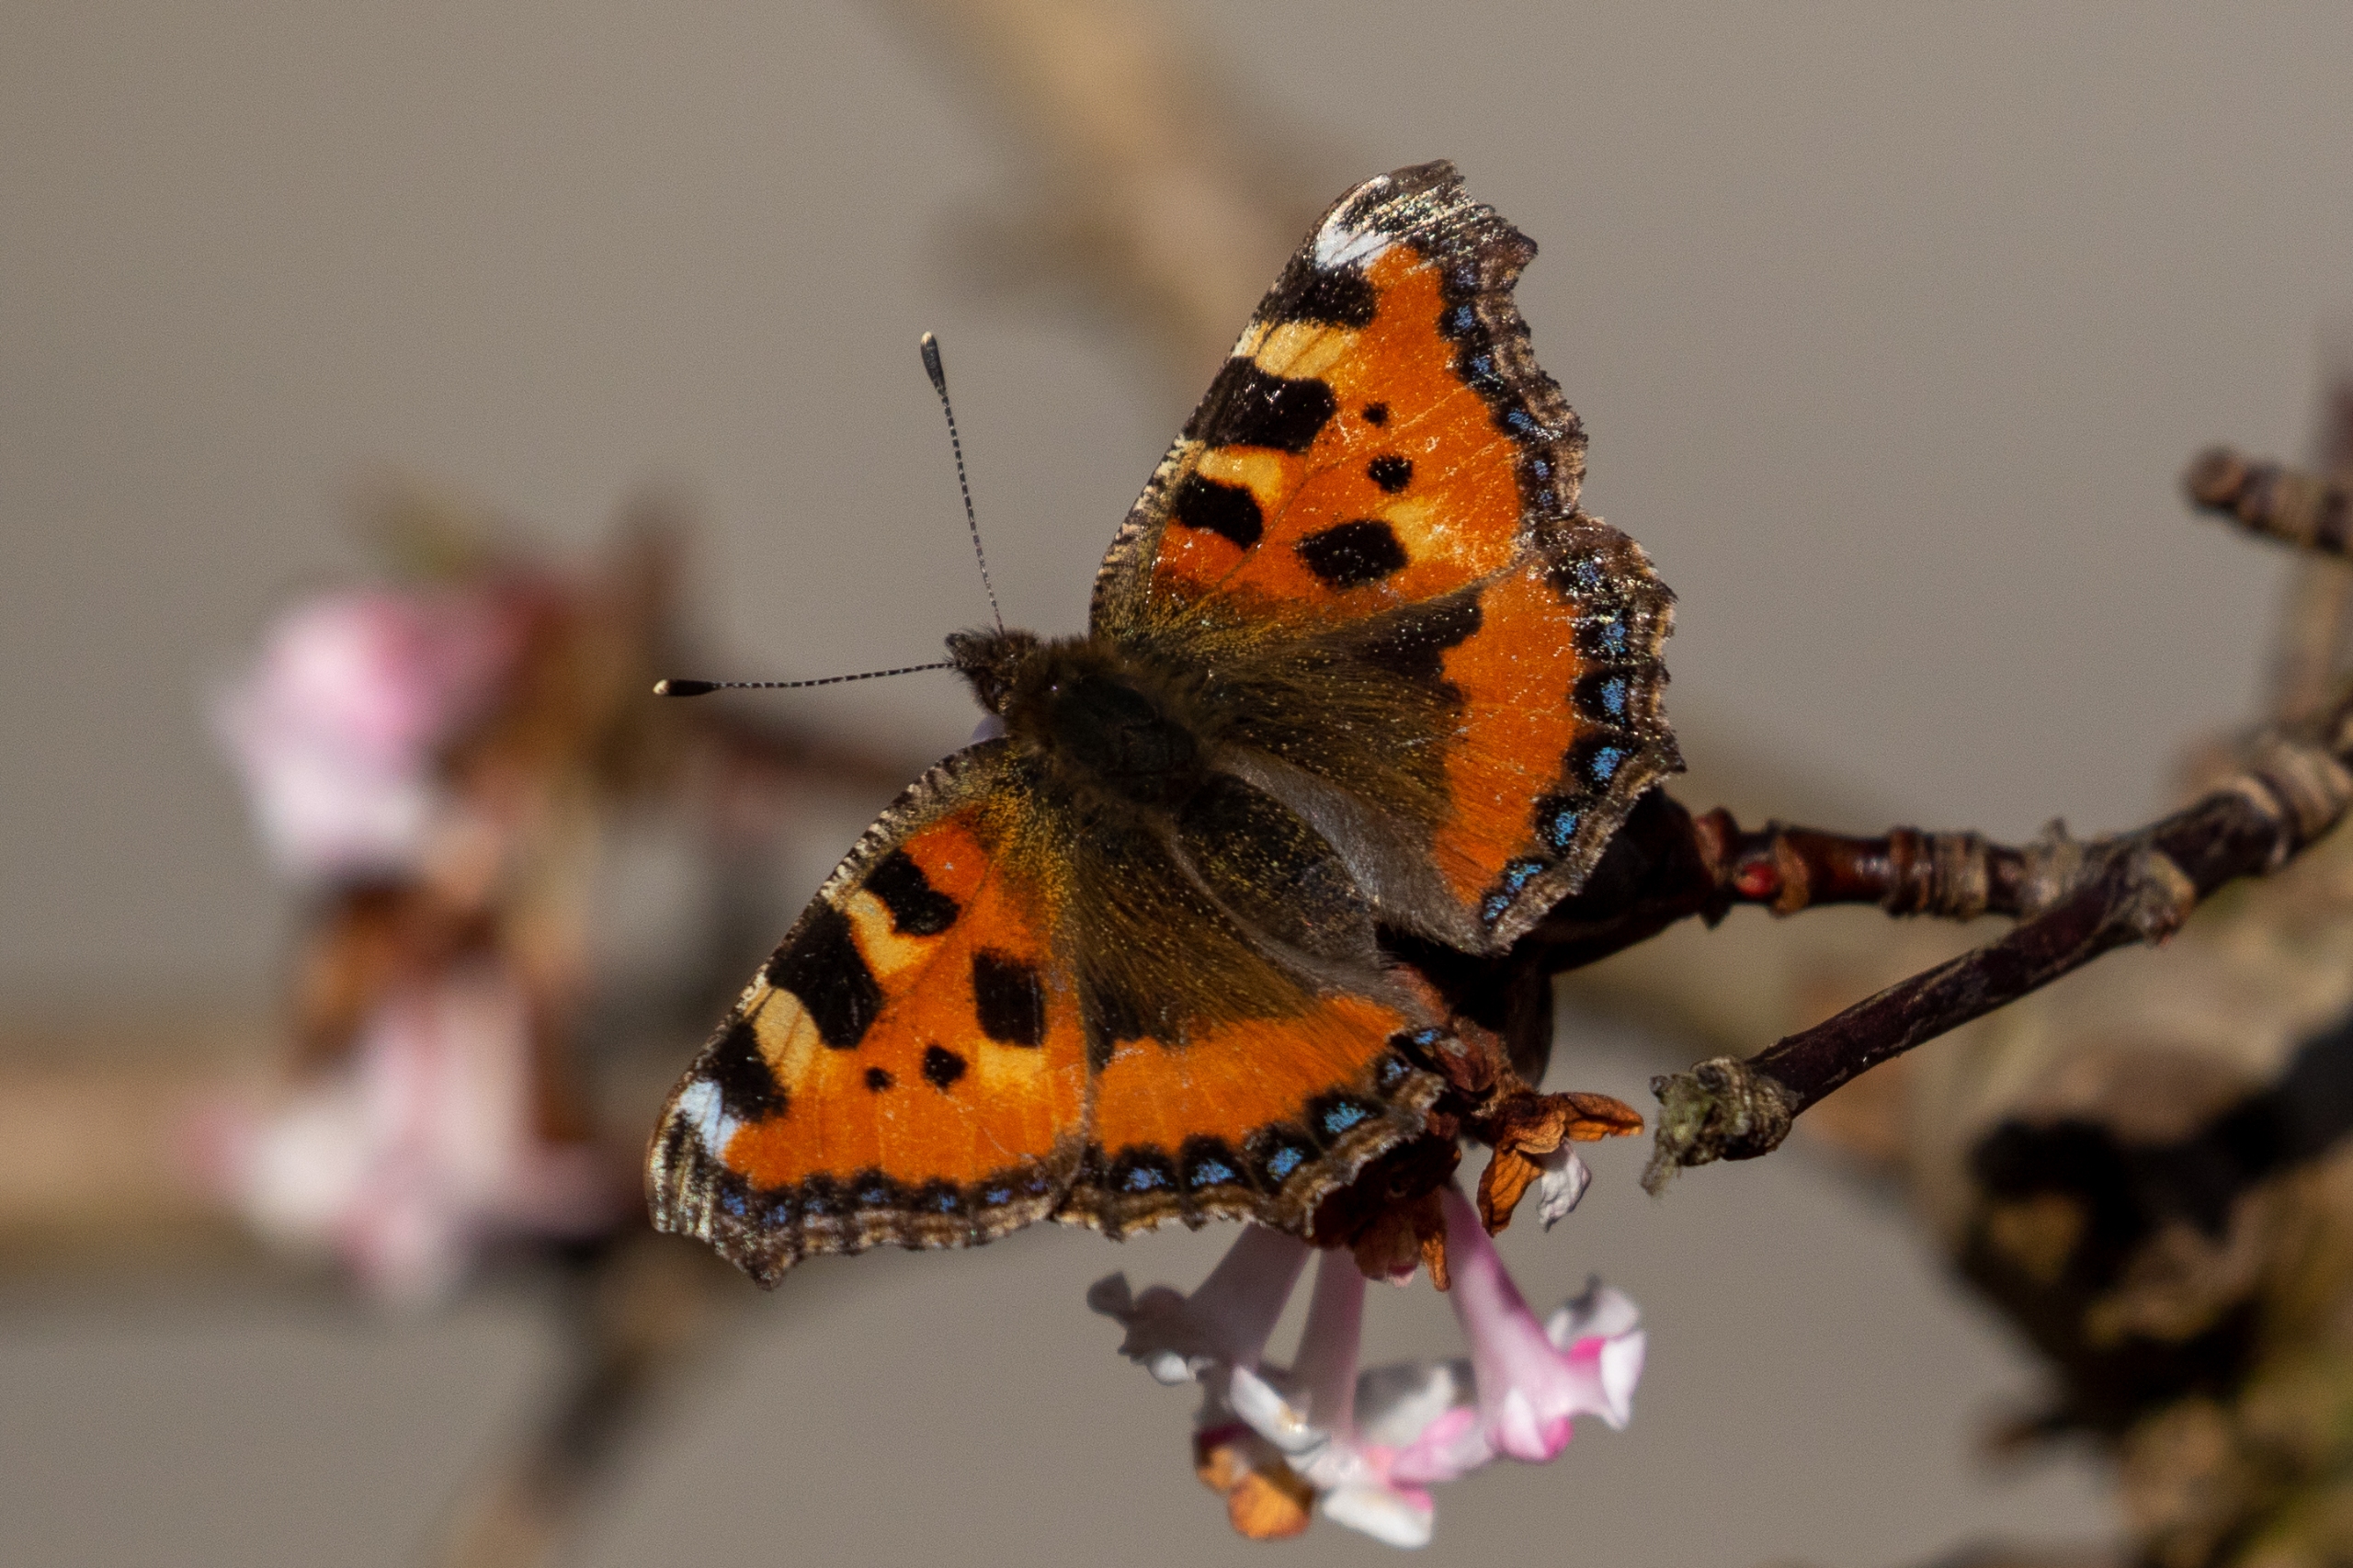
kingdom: Animalia
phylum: Arthropoda
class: Insecta
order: Lepidoptera
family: Nymphalidae
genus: Aglais
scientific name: Aglais urticae
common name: Nældens takvinge
